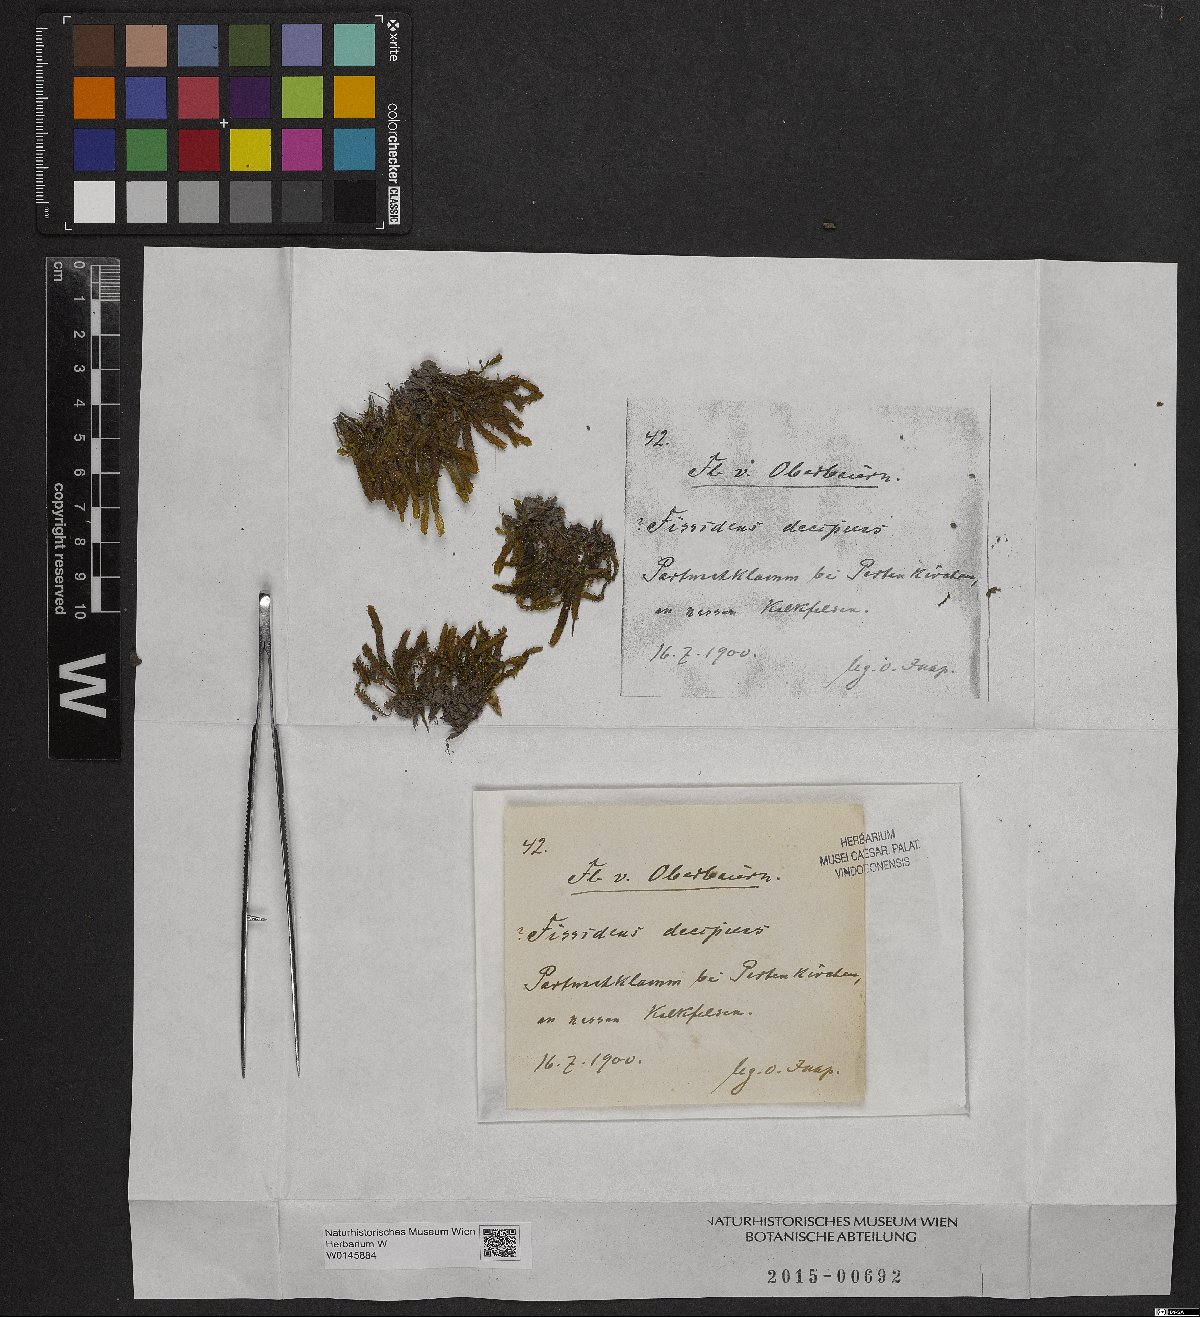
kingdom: Plantae
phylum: Bryophyta
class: Bryopsida
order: Dicranales
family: Fissidentaceae
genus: Fissidens
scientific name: Fissidens dubius
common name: Rock pocket moss
